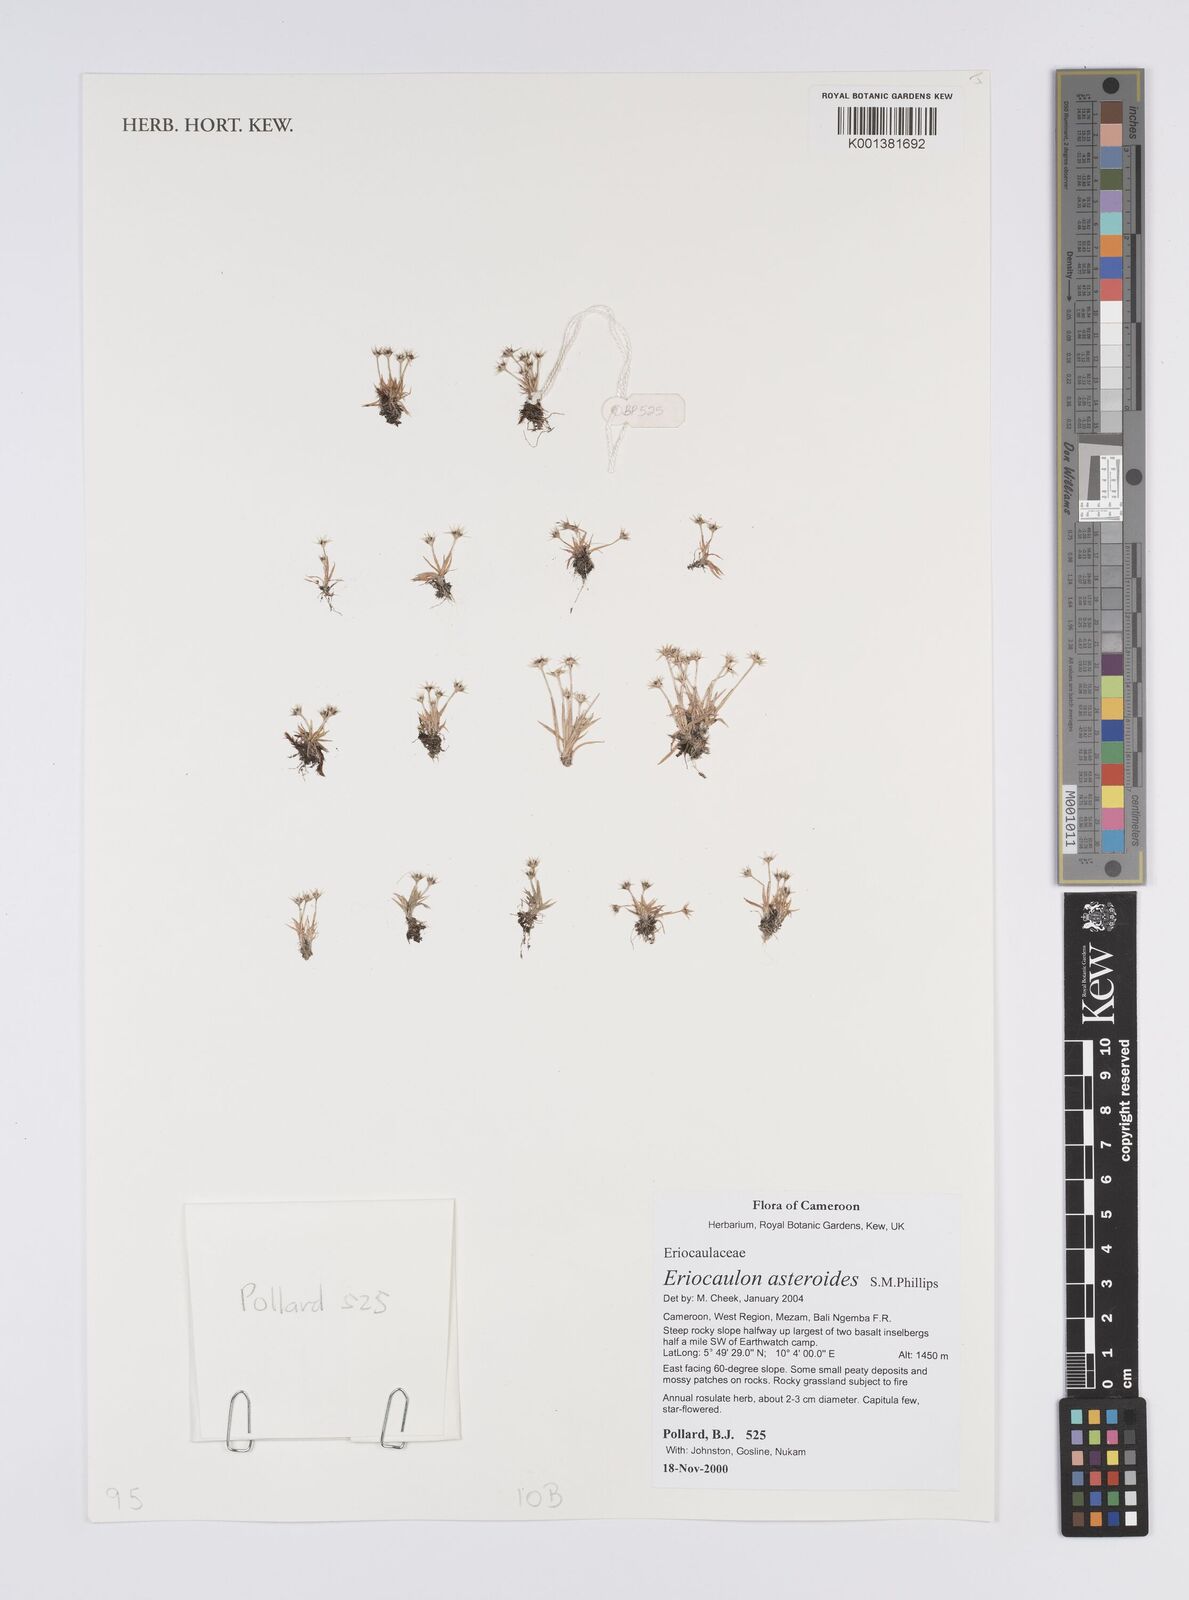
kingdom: Plantae
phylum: Tracheophyta
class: Liliopsida
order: Poales
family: Eriocaulaceae
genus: Eriocaulon
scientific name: Eriocaulon asteroides
